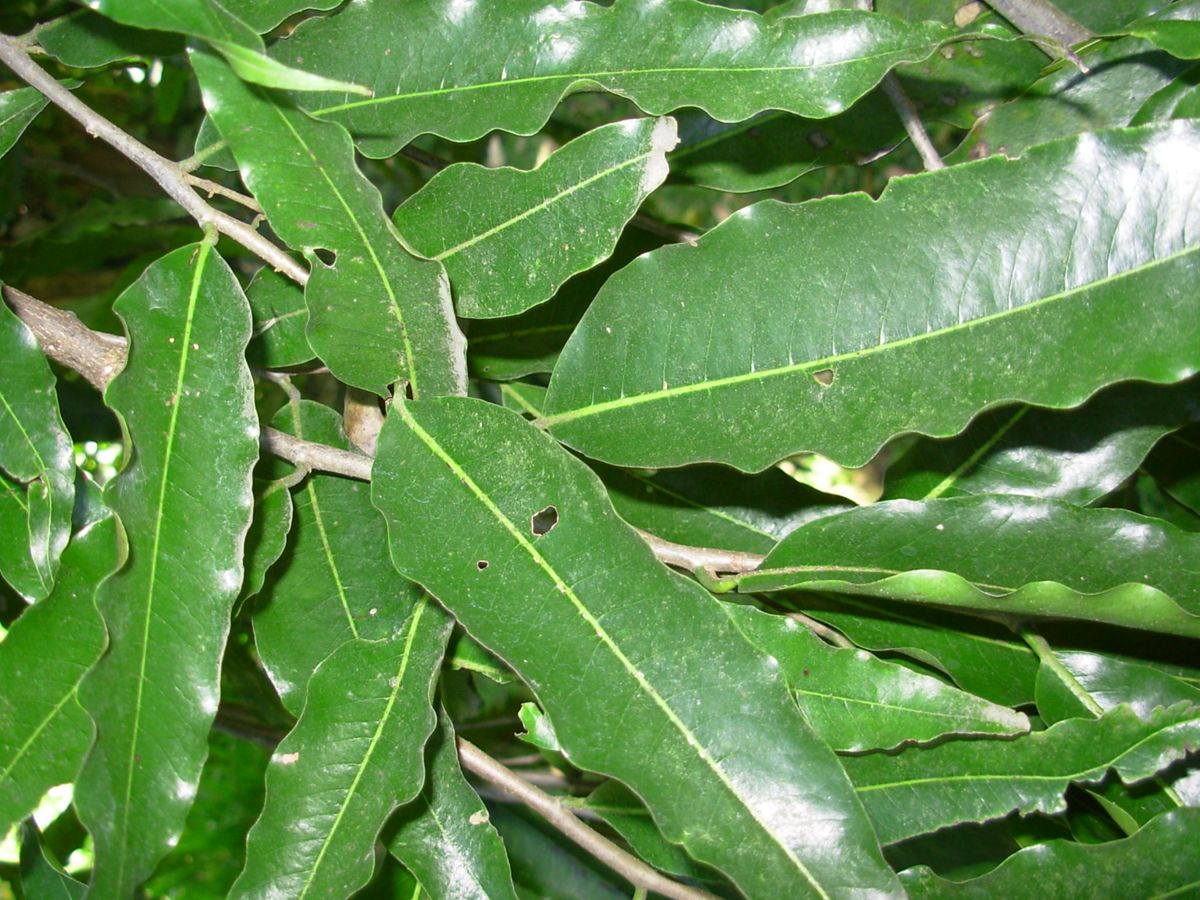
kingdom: Plantae
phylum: Tracheophyta
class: Magnoliopsida
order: Magnoliales
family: Annonaceae
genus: Polyalthia
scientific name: Polyalthia longifolia
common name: Cemetery-tree
